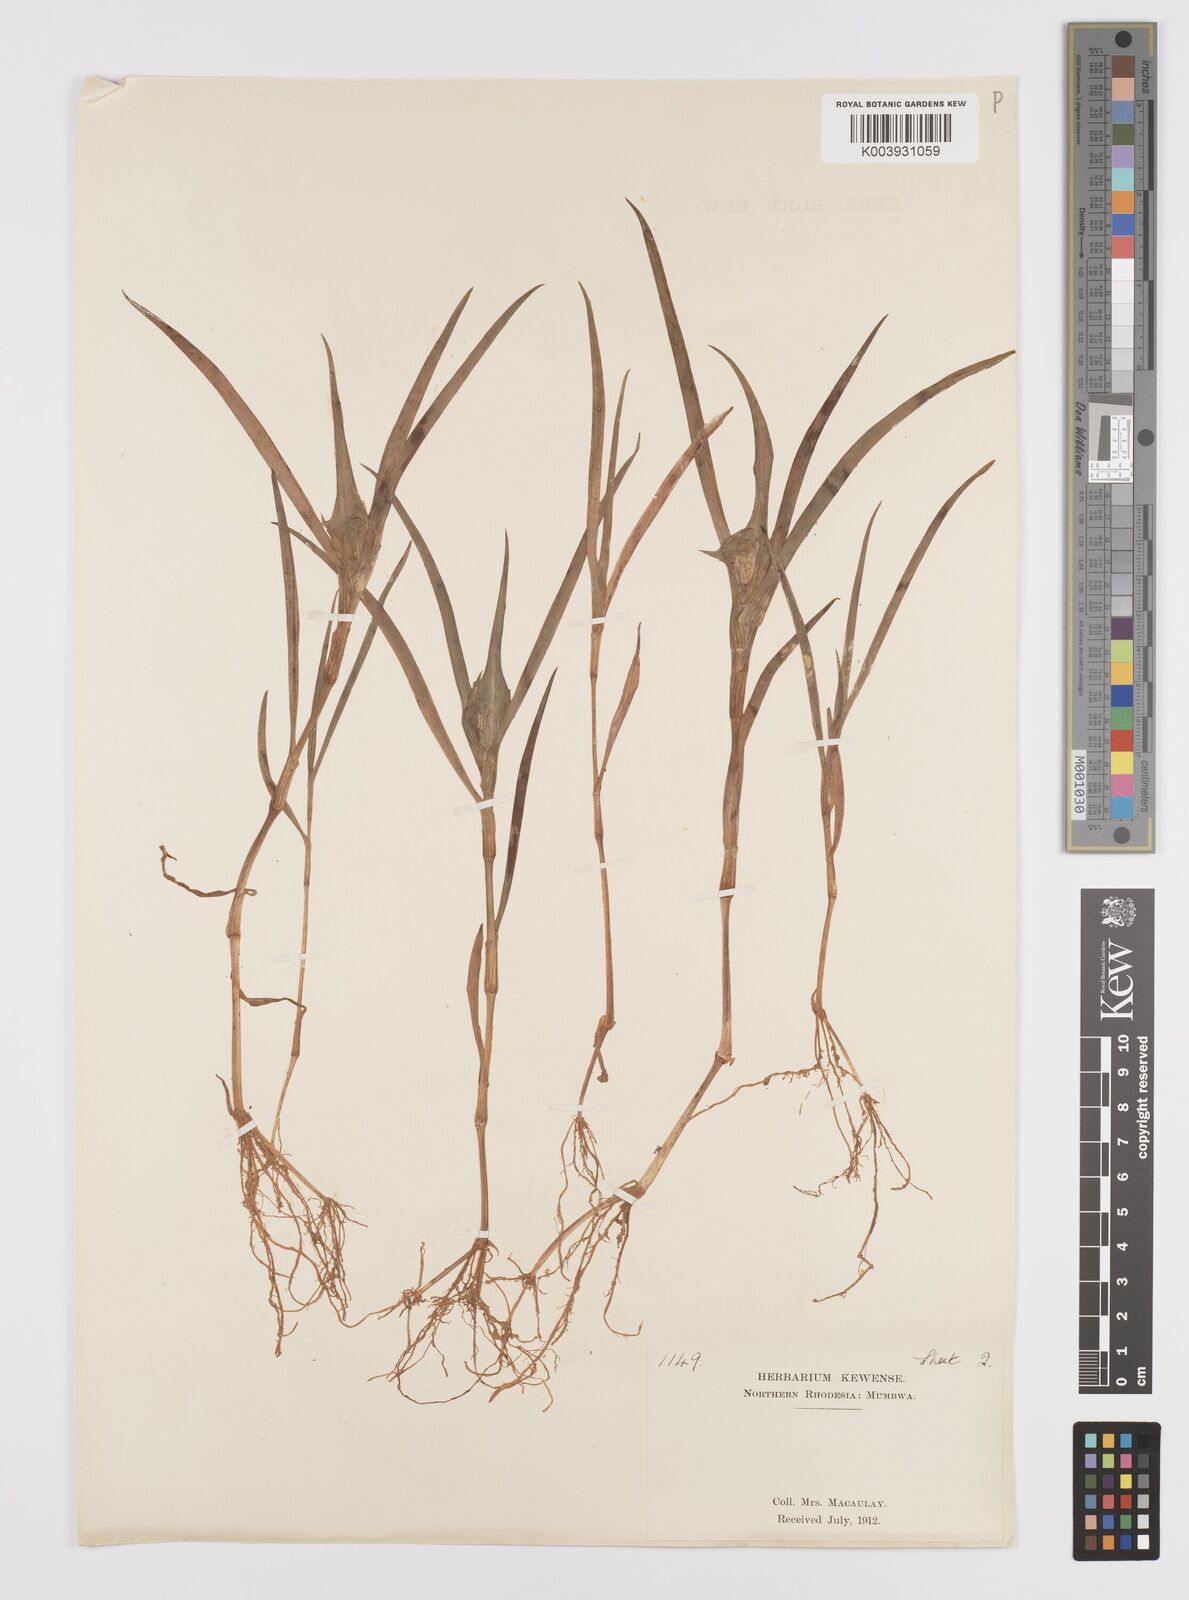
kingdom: Plantae
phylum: Tracheophyta
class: Liliopsida
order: Commelinales
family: Commelinaceae
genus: Commelina
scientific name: Commelina aspera
